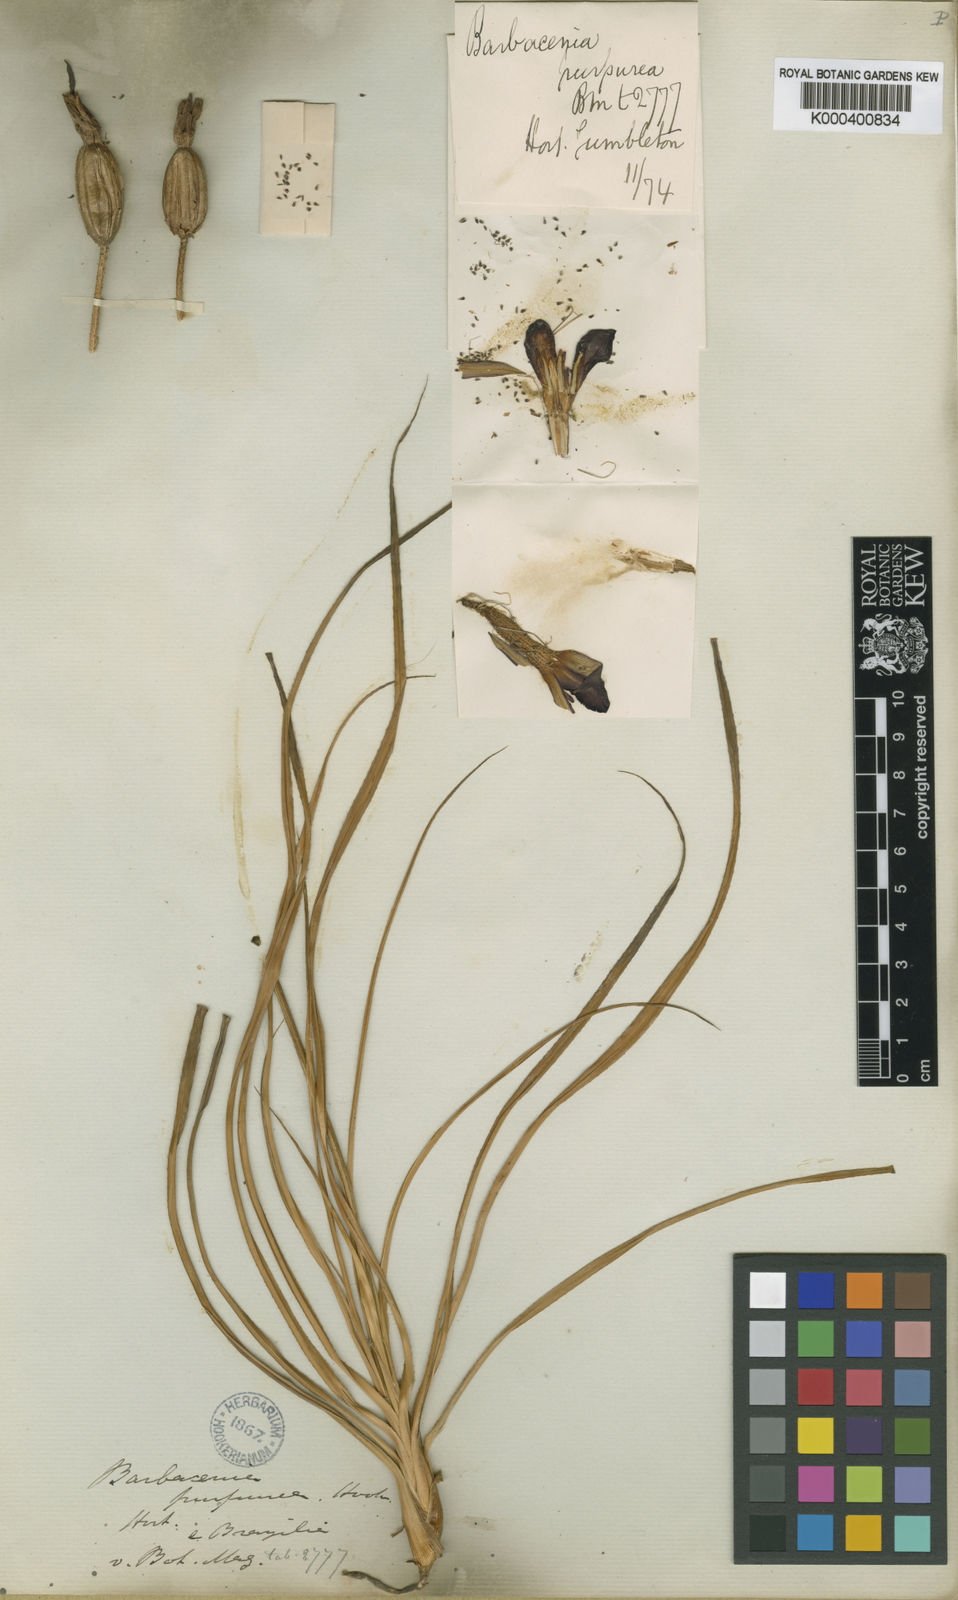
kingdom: Plantae
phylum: Tracheophyta
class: Liliopsida
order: Pandanales
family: Velloziaceae
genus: Barbacenia
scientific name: Barbacenia purpurea
